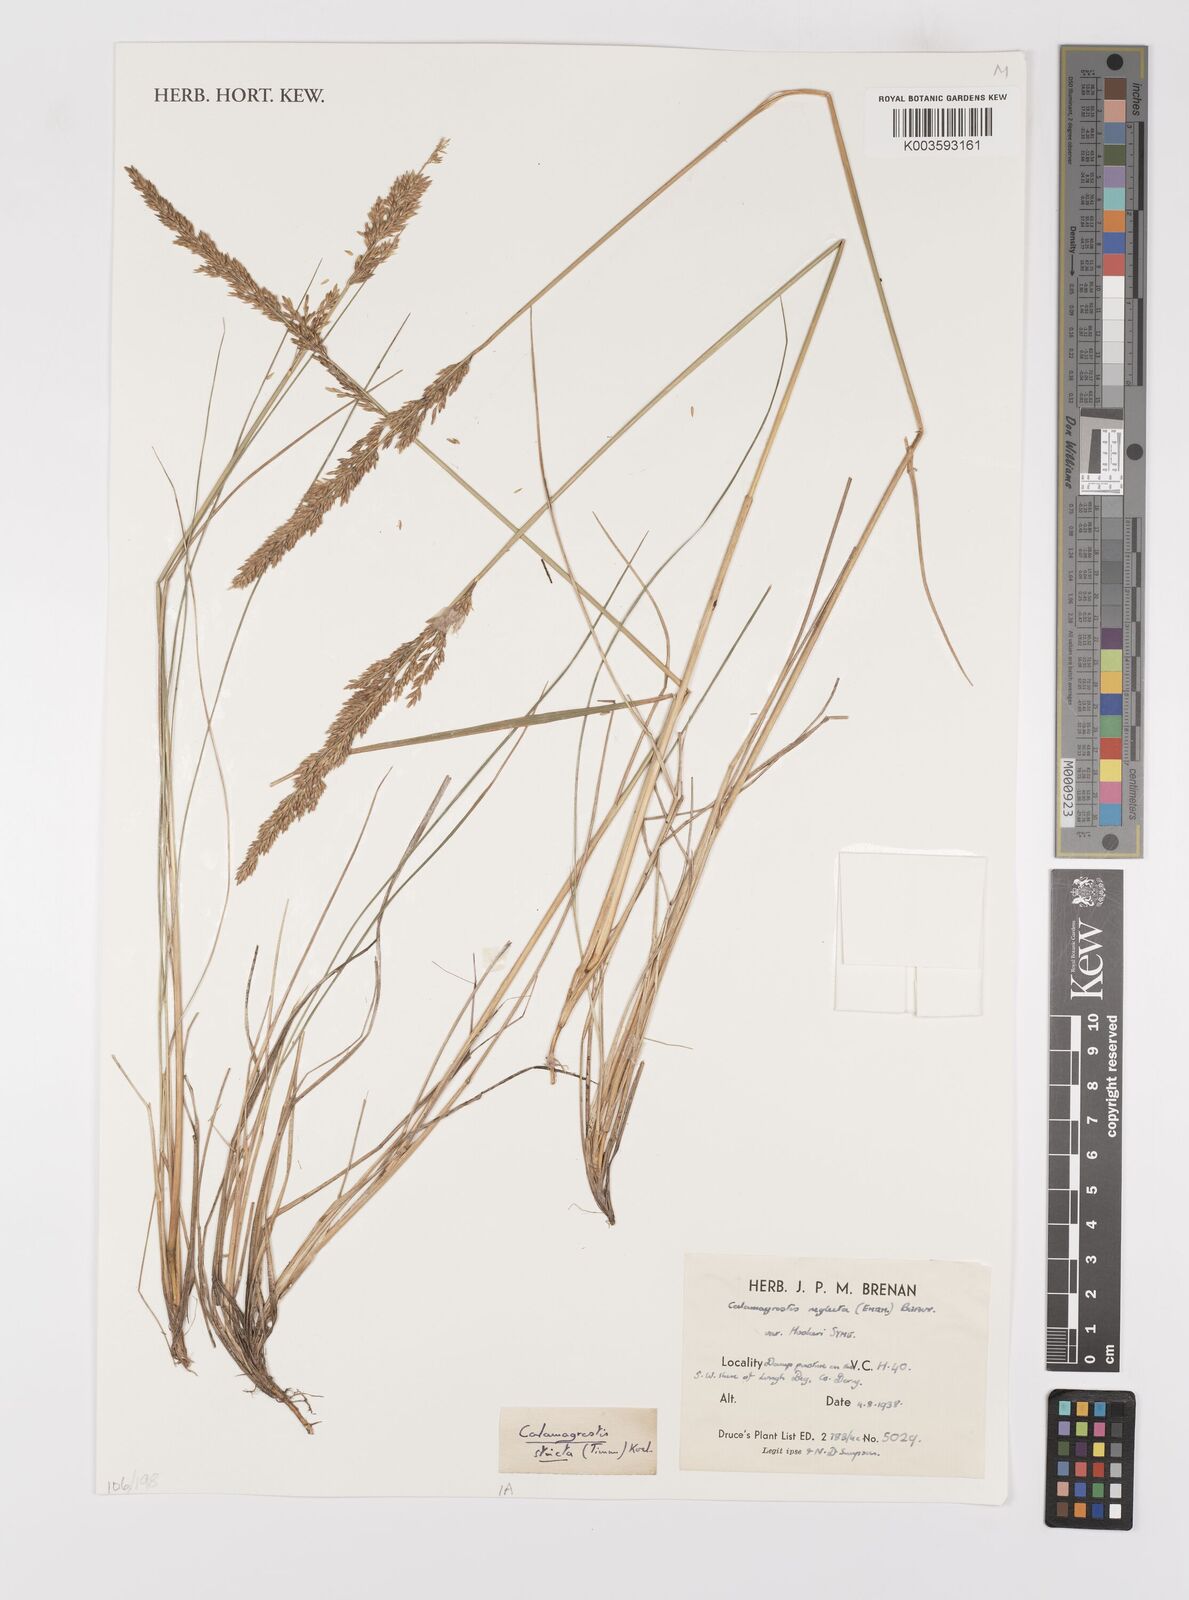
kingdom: Plantae
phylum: Tracheophyta
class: Liliopsida
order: Poales
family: Poaceae
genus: Calamagrostis
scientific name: Calamagrostis
